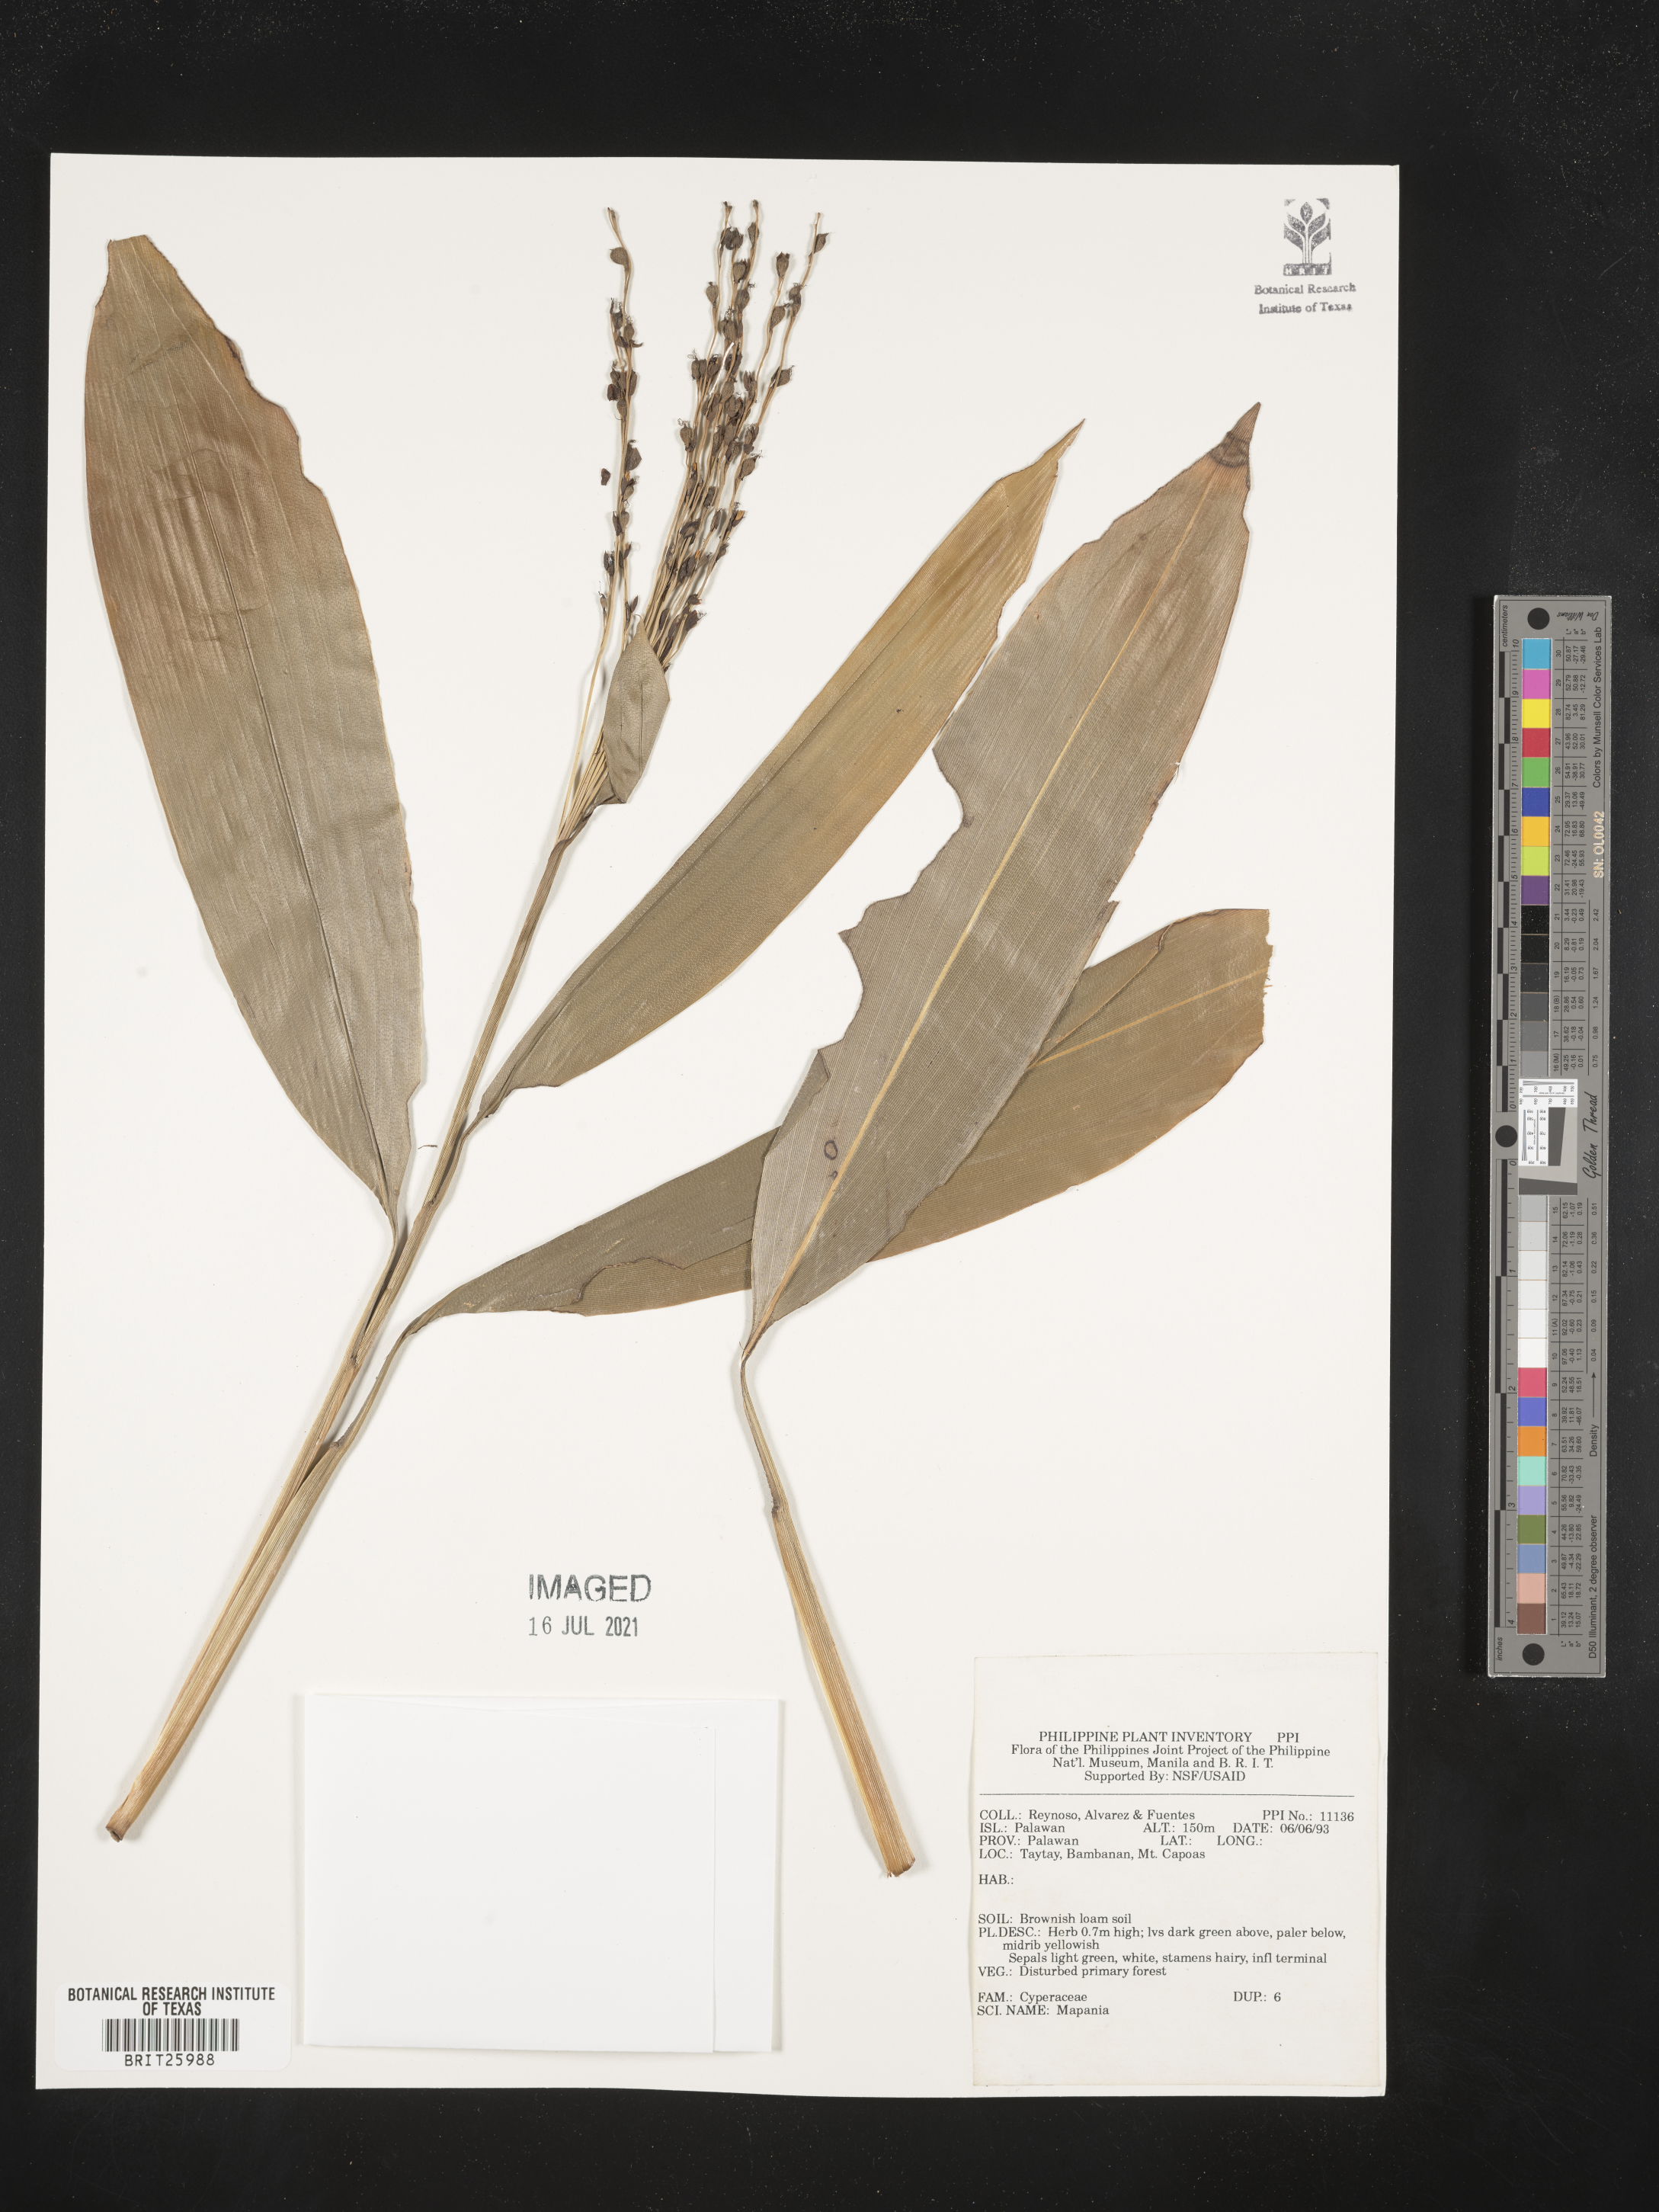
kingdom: Plantae
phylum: Tracheophyta
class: Liliopsida
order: Poales
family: Cyperaceae
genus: Mapania
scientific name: Mapania
